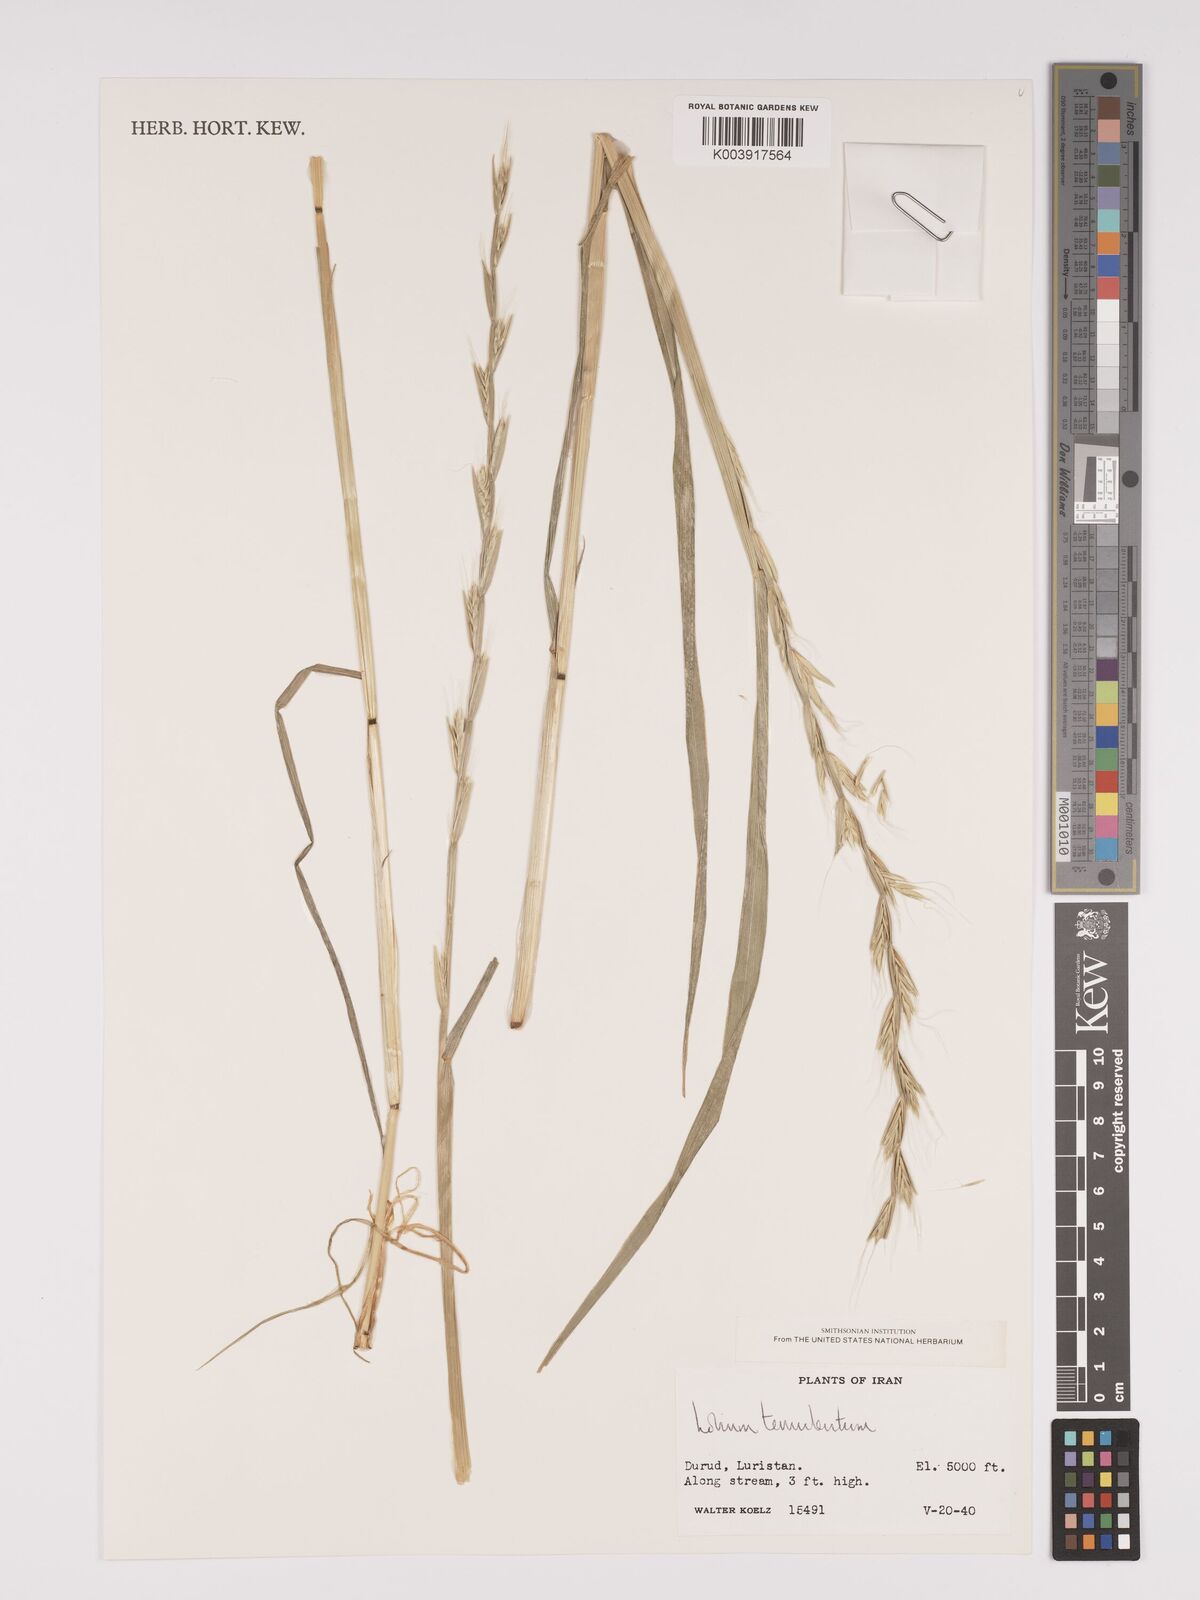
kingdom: Plantae
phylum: Tracheophyta
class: Liliopsida
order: Poales
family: Poaceae
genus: Lolium
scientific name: Lolium temulentum
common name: Darnel
